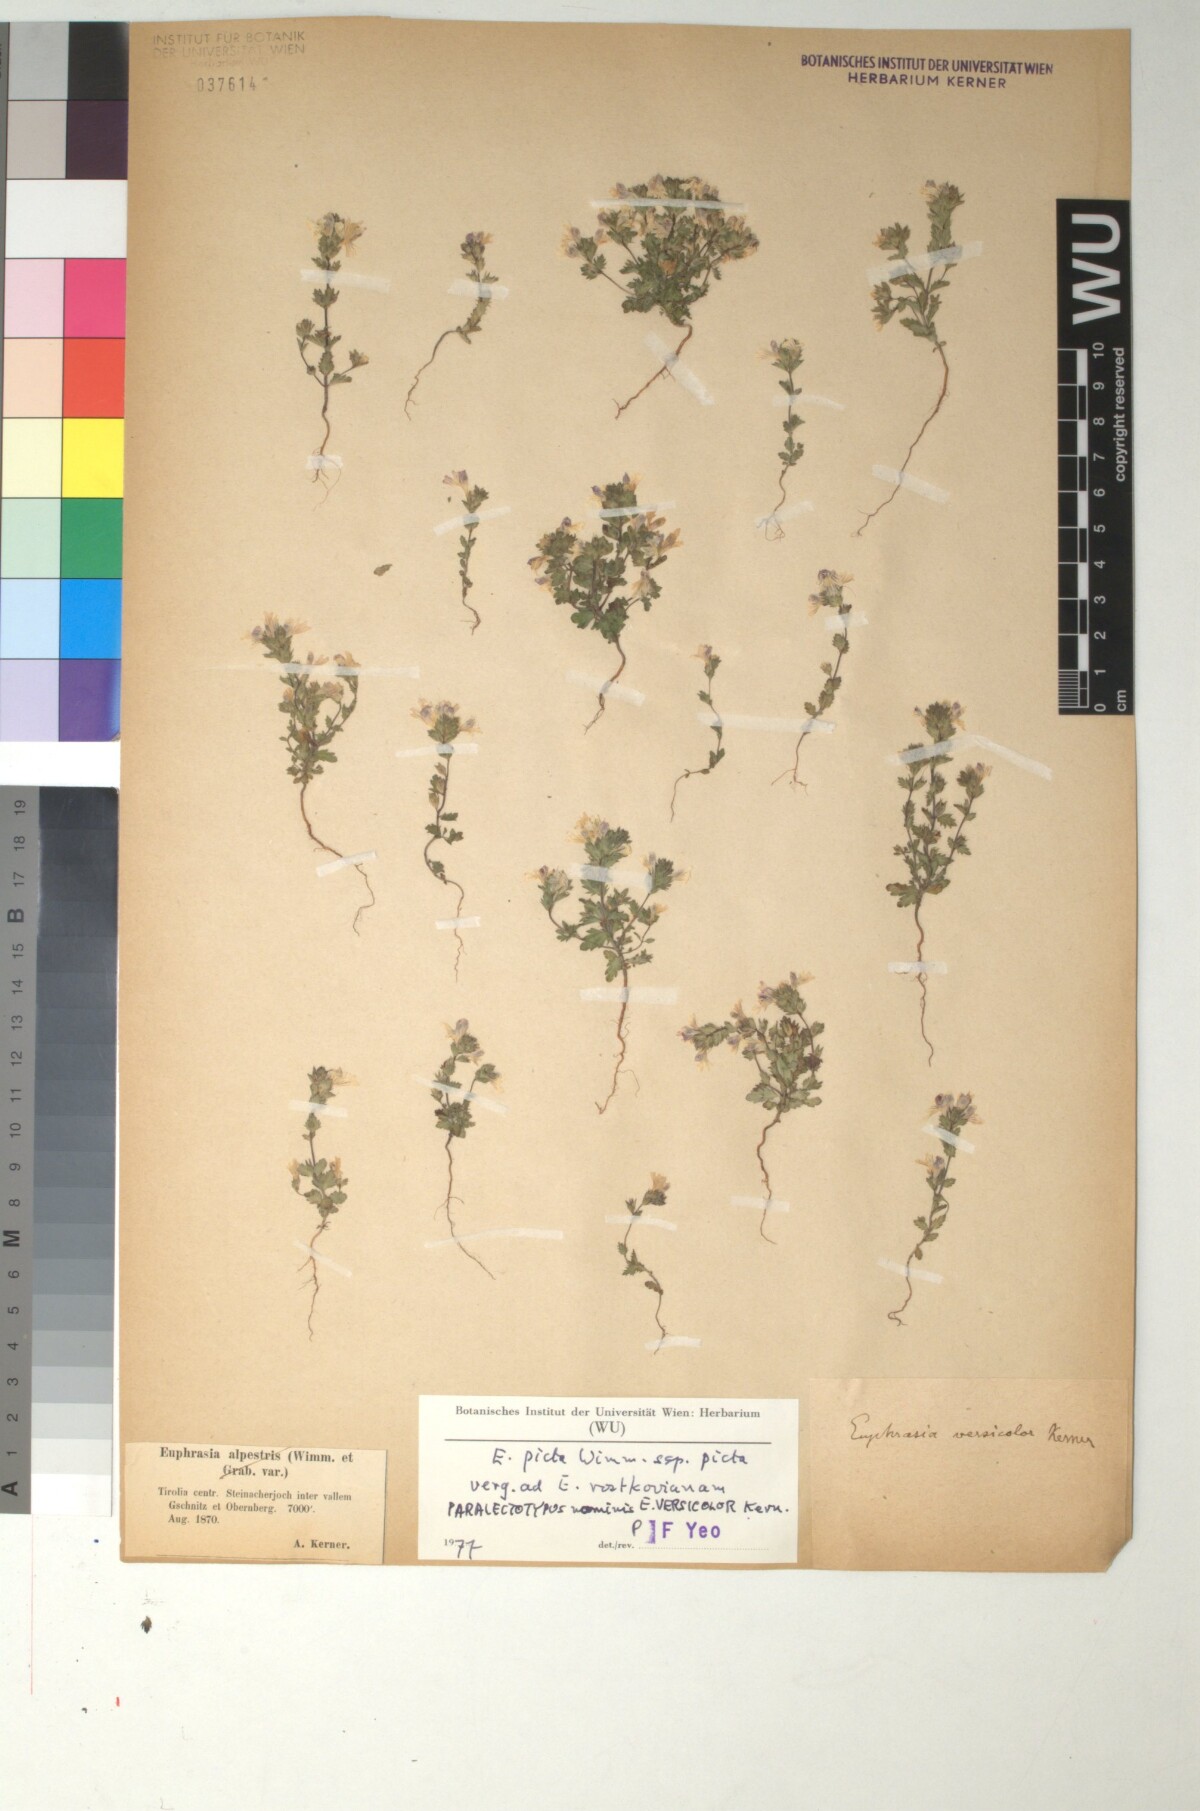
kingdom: Plantae
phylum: Tracheophyta
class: Magnoliopsida
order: Lamiales
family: Orobanchaceae
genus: Euphrasia
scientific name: Euphrasia picta
